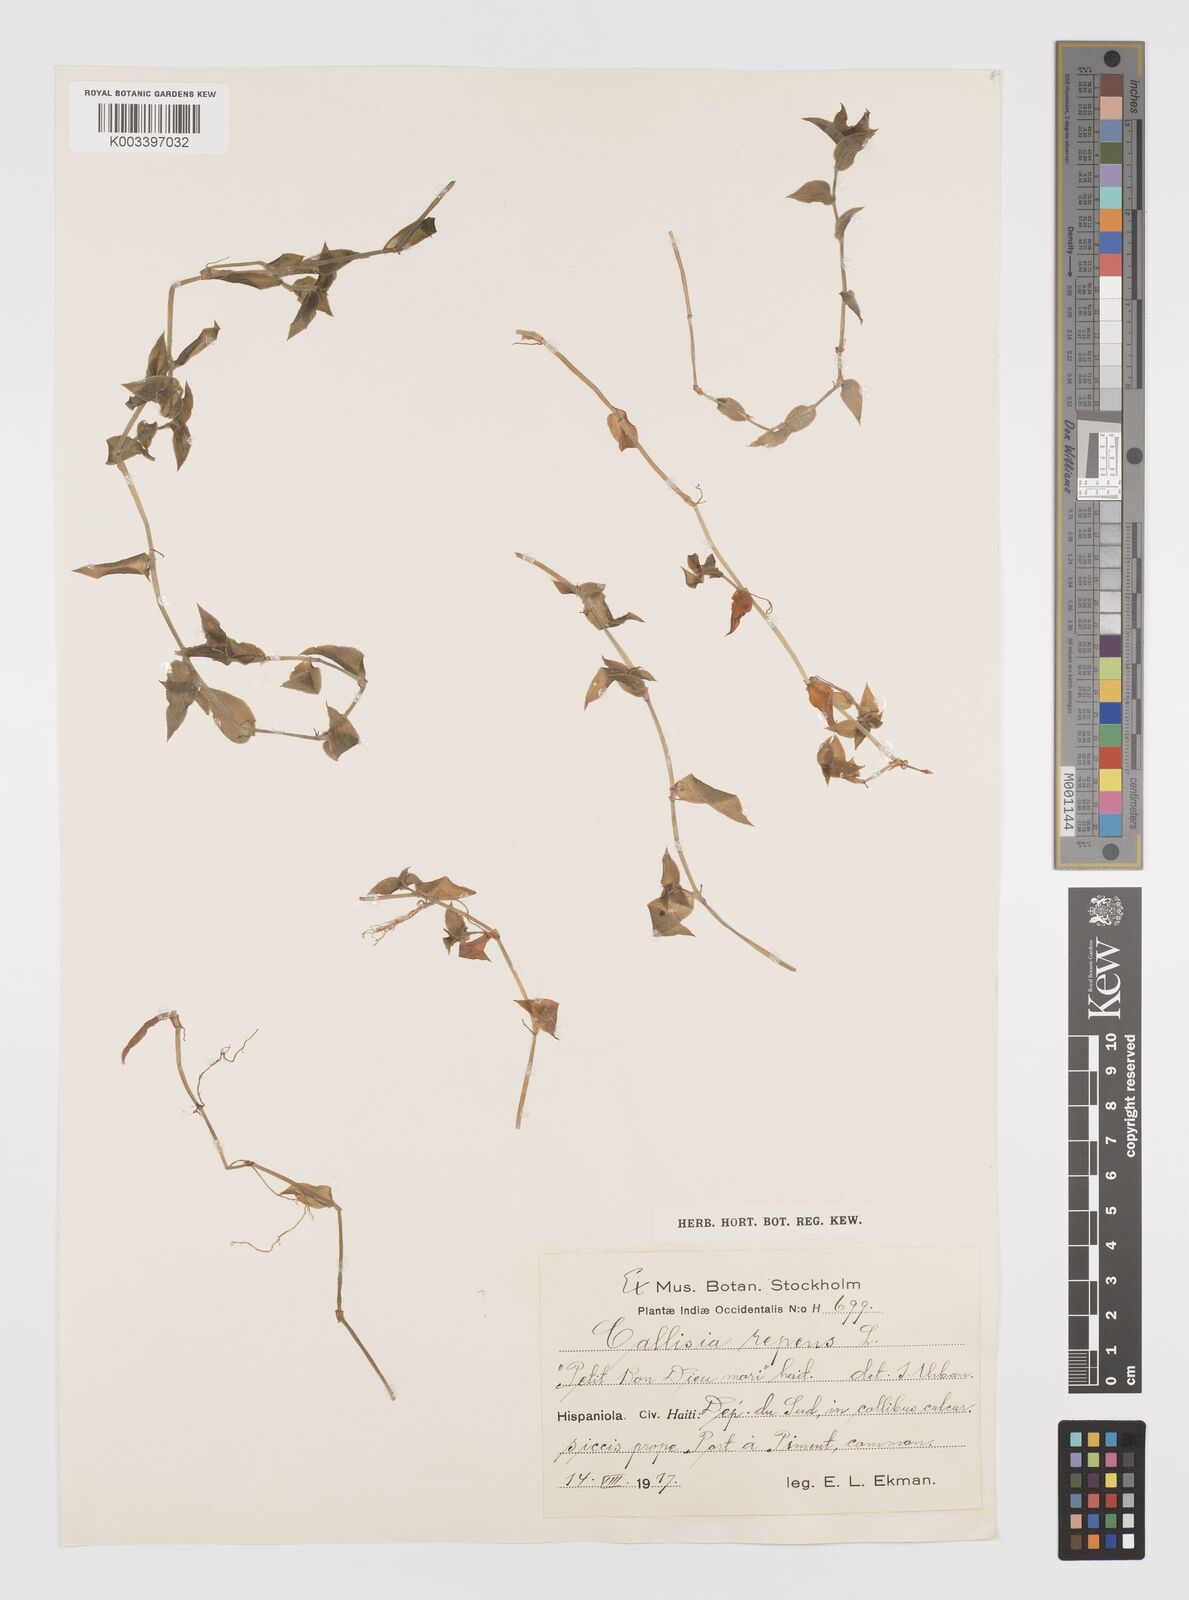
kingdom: Plantae
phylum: Tracheophyta
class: Liliopsida
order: Commelinales
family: Commelinaceae
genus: Callisia
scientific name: Callisia repens
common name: Creeping inchplant
